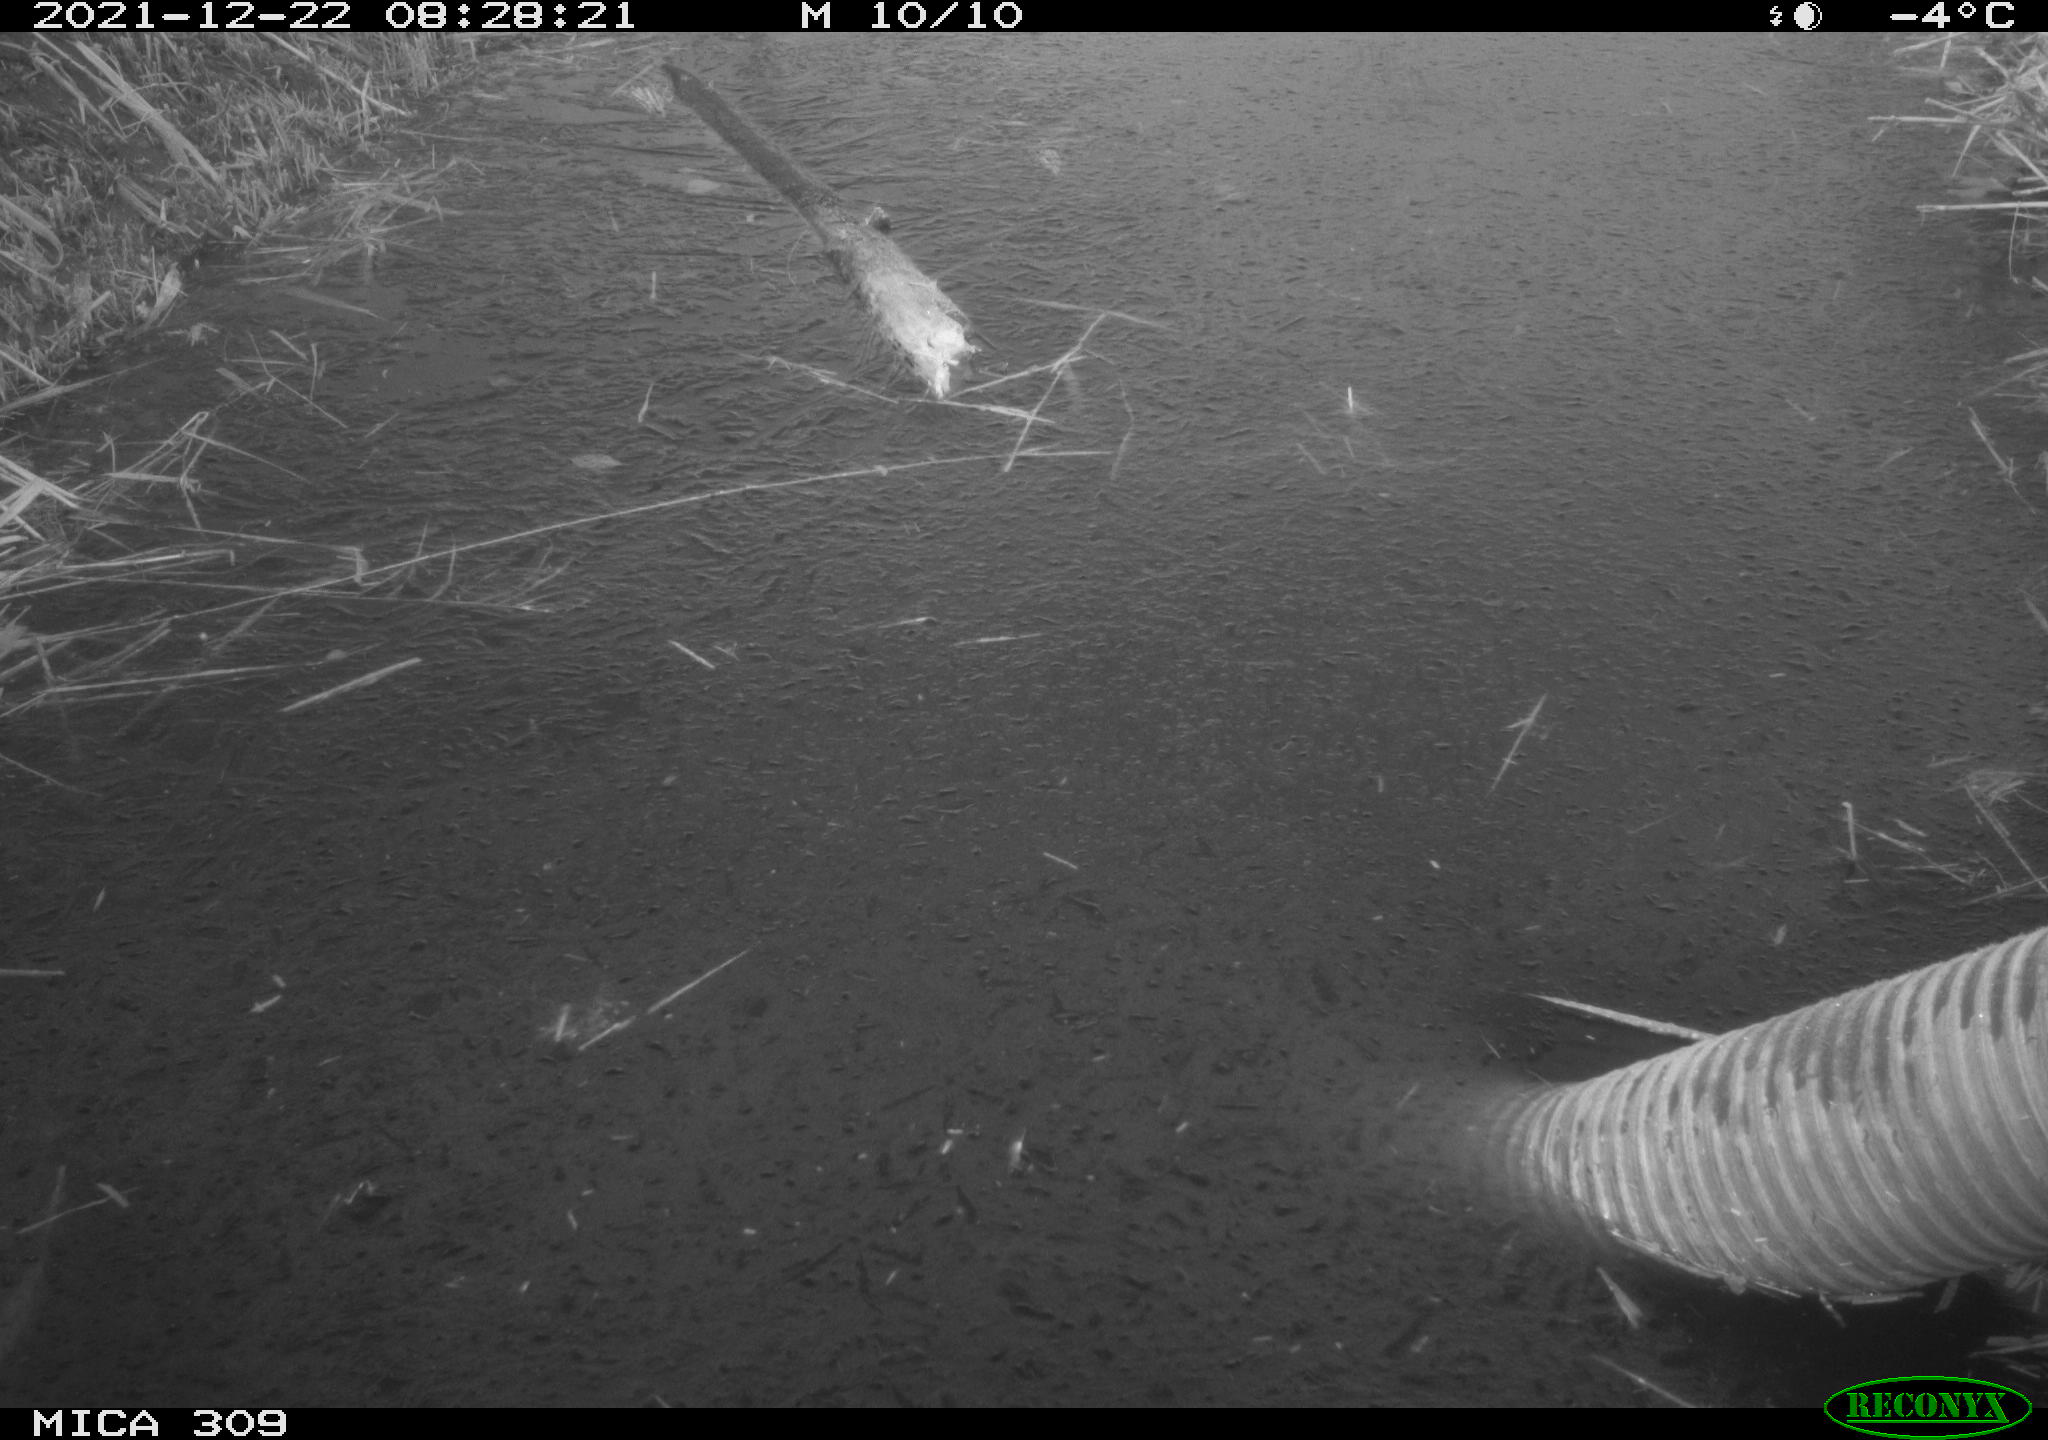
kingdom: Animalia
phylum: Chordata
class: Aves
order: Gruiformes
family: Rallidae
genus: Gallinula
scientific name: Gallinula chloropus
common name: Common moorhen
